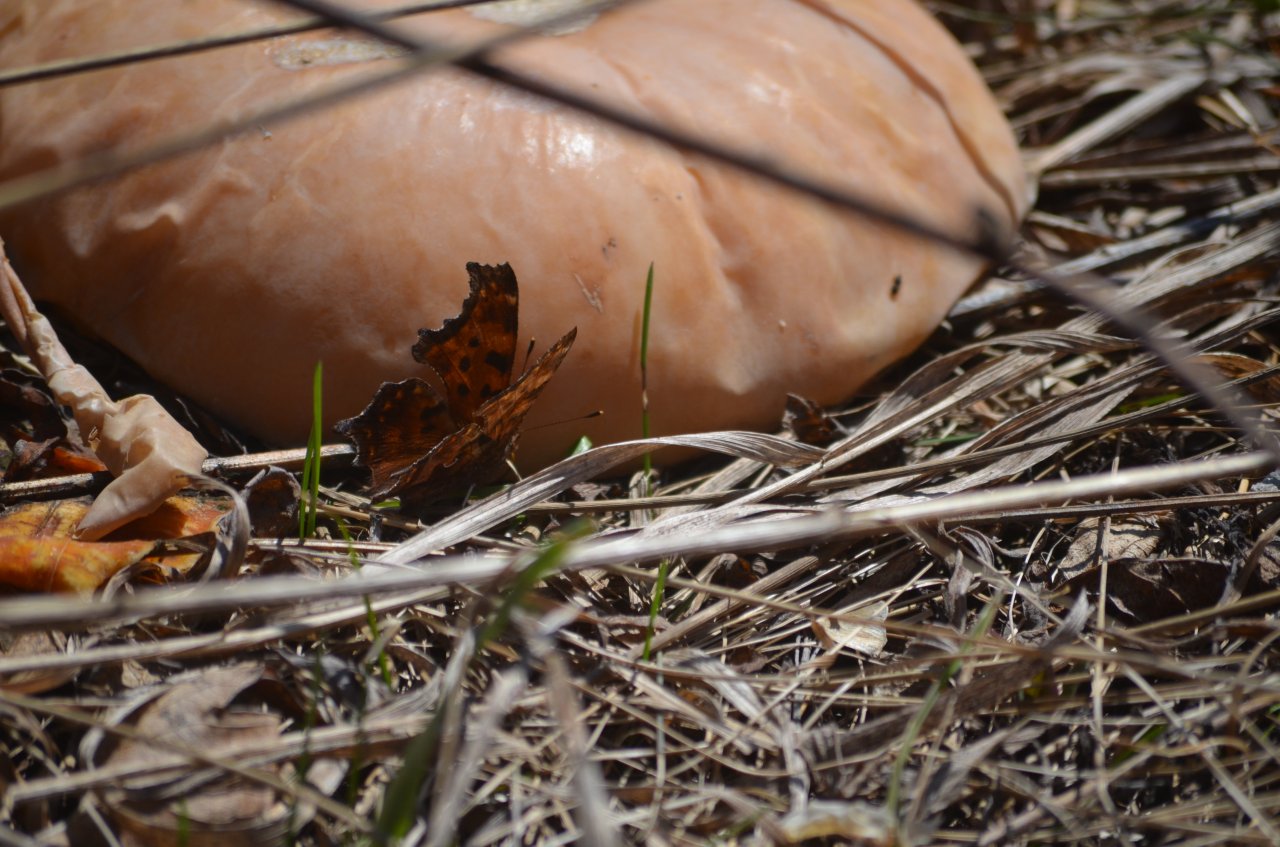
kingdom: Animalia
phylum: Arthropoda
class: Insecta
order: Lepidoptera
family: Nymphalidae
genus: Polygonia
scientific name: Polygonia comma
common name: Eastern Comma
